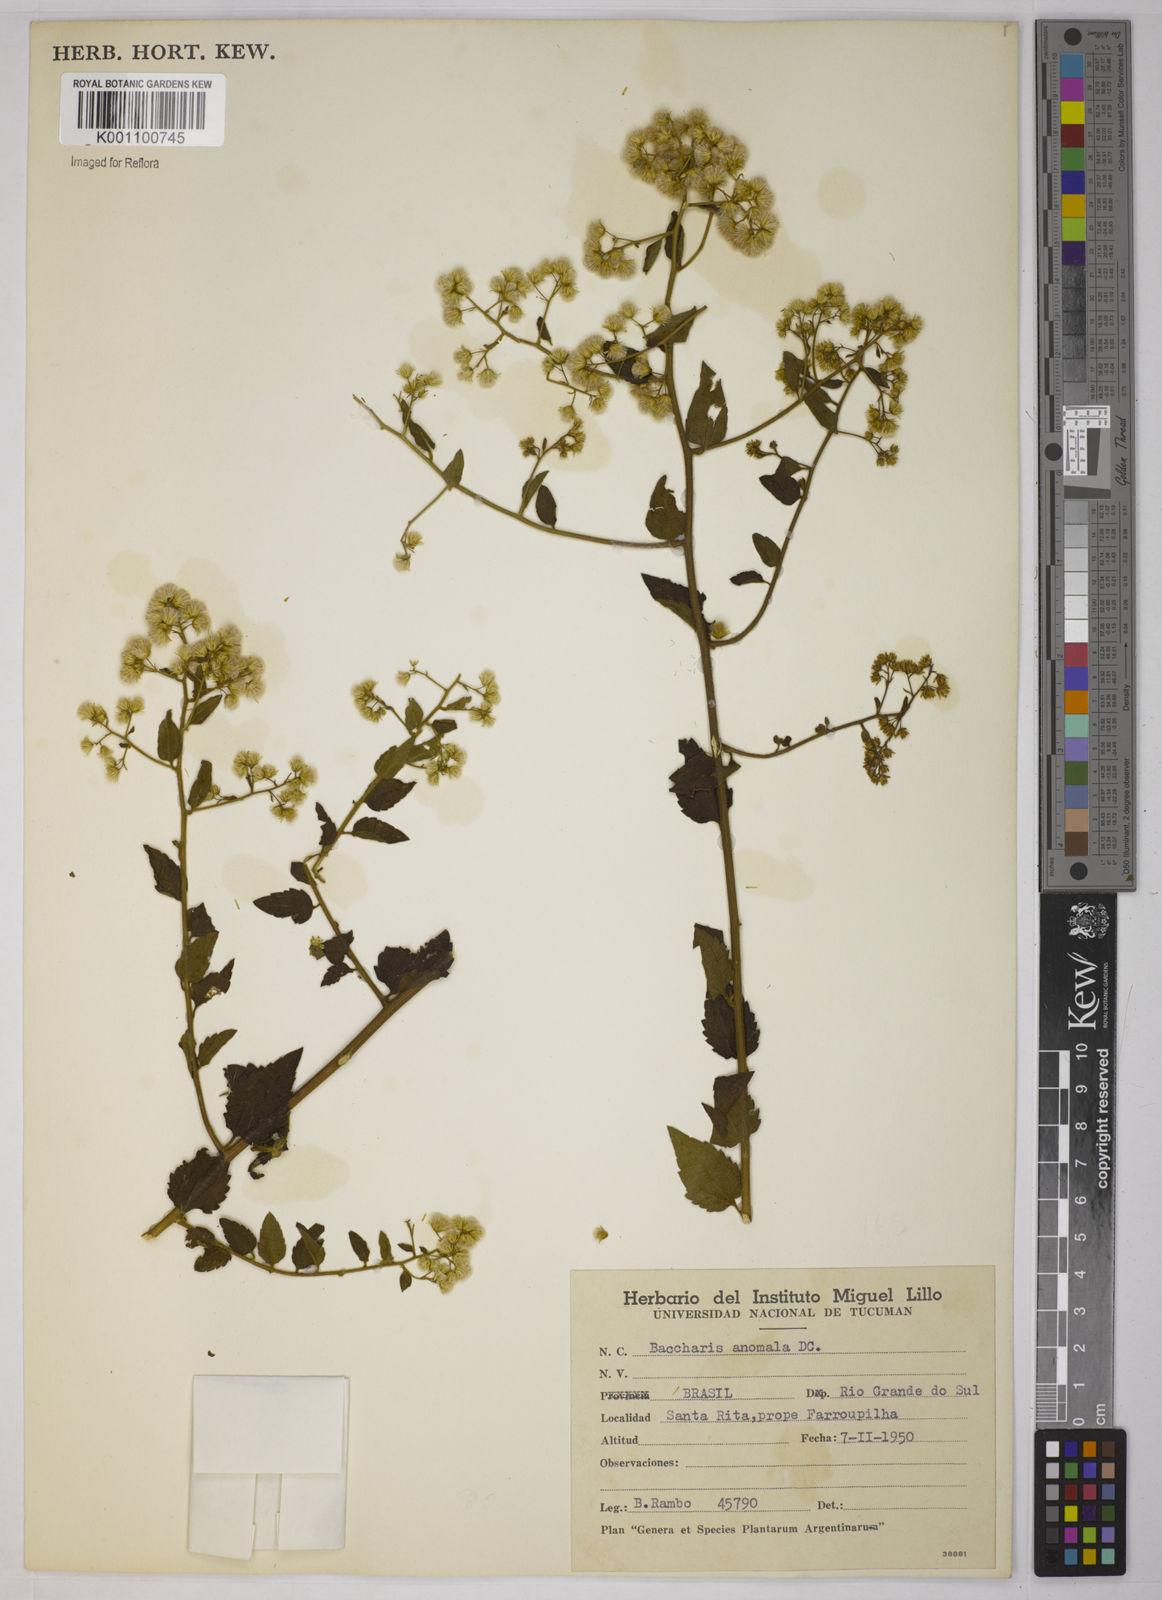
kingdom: Plantae
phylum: Tracheophyta
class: Magnoliopsida
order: Asterales
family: Asteraceae
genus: Baccharis
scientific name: Baccharis anomala
